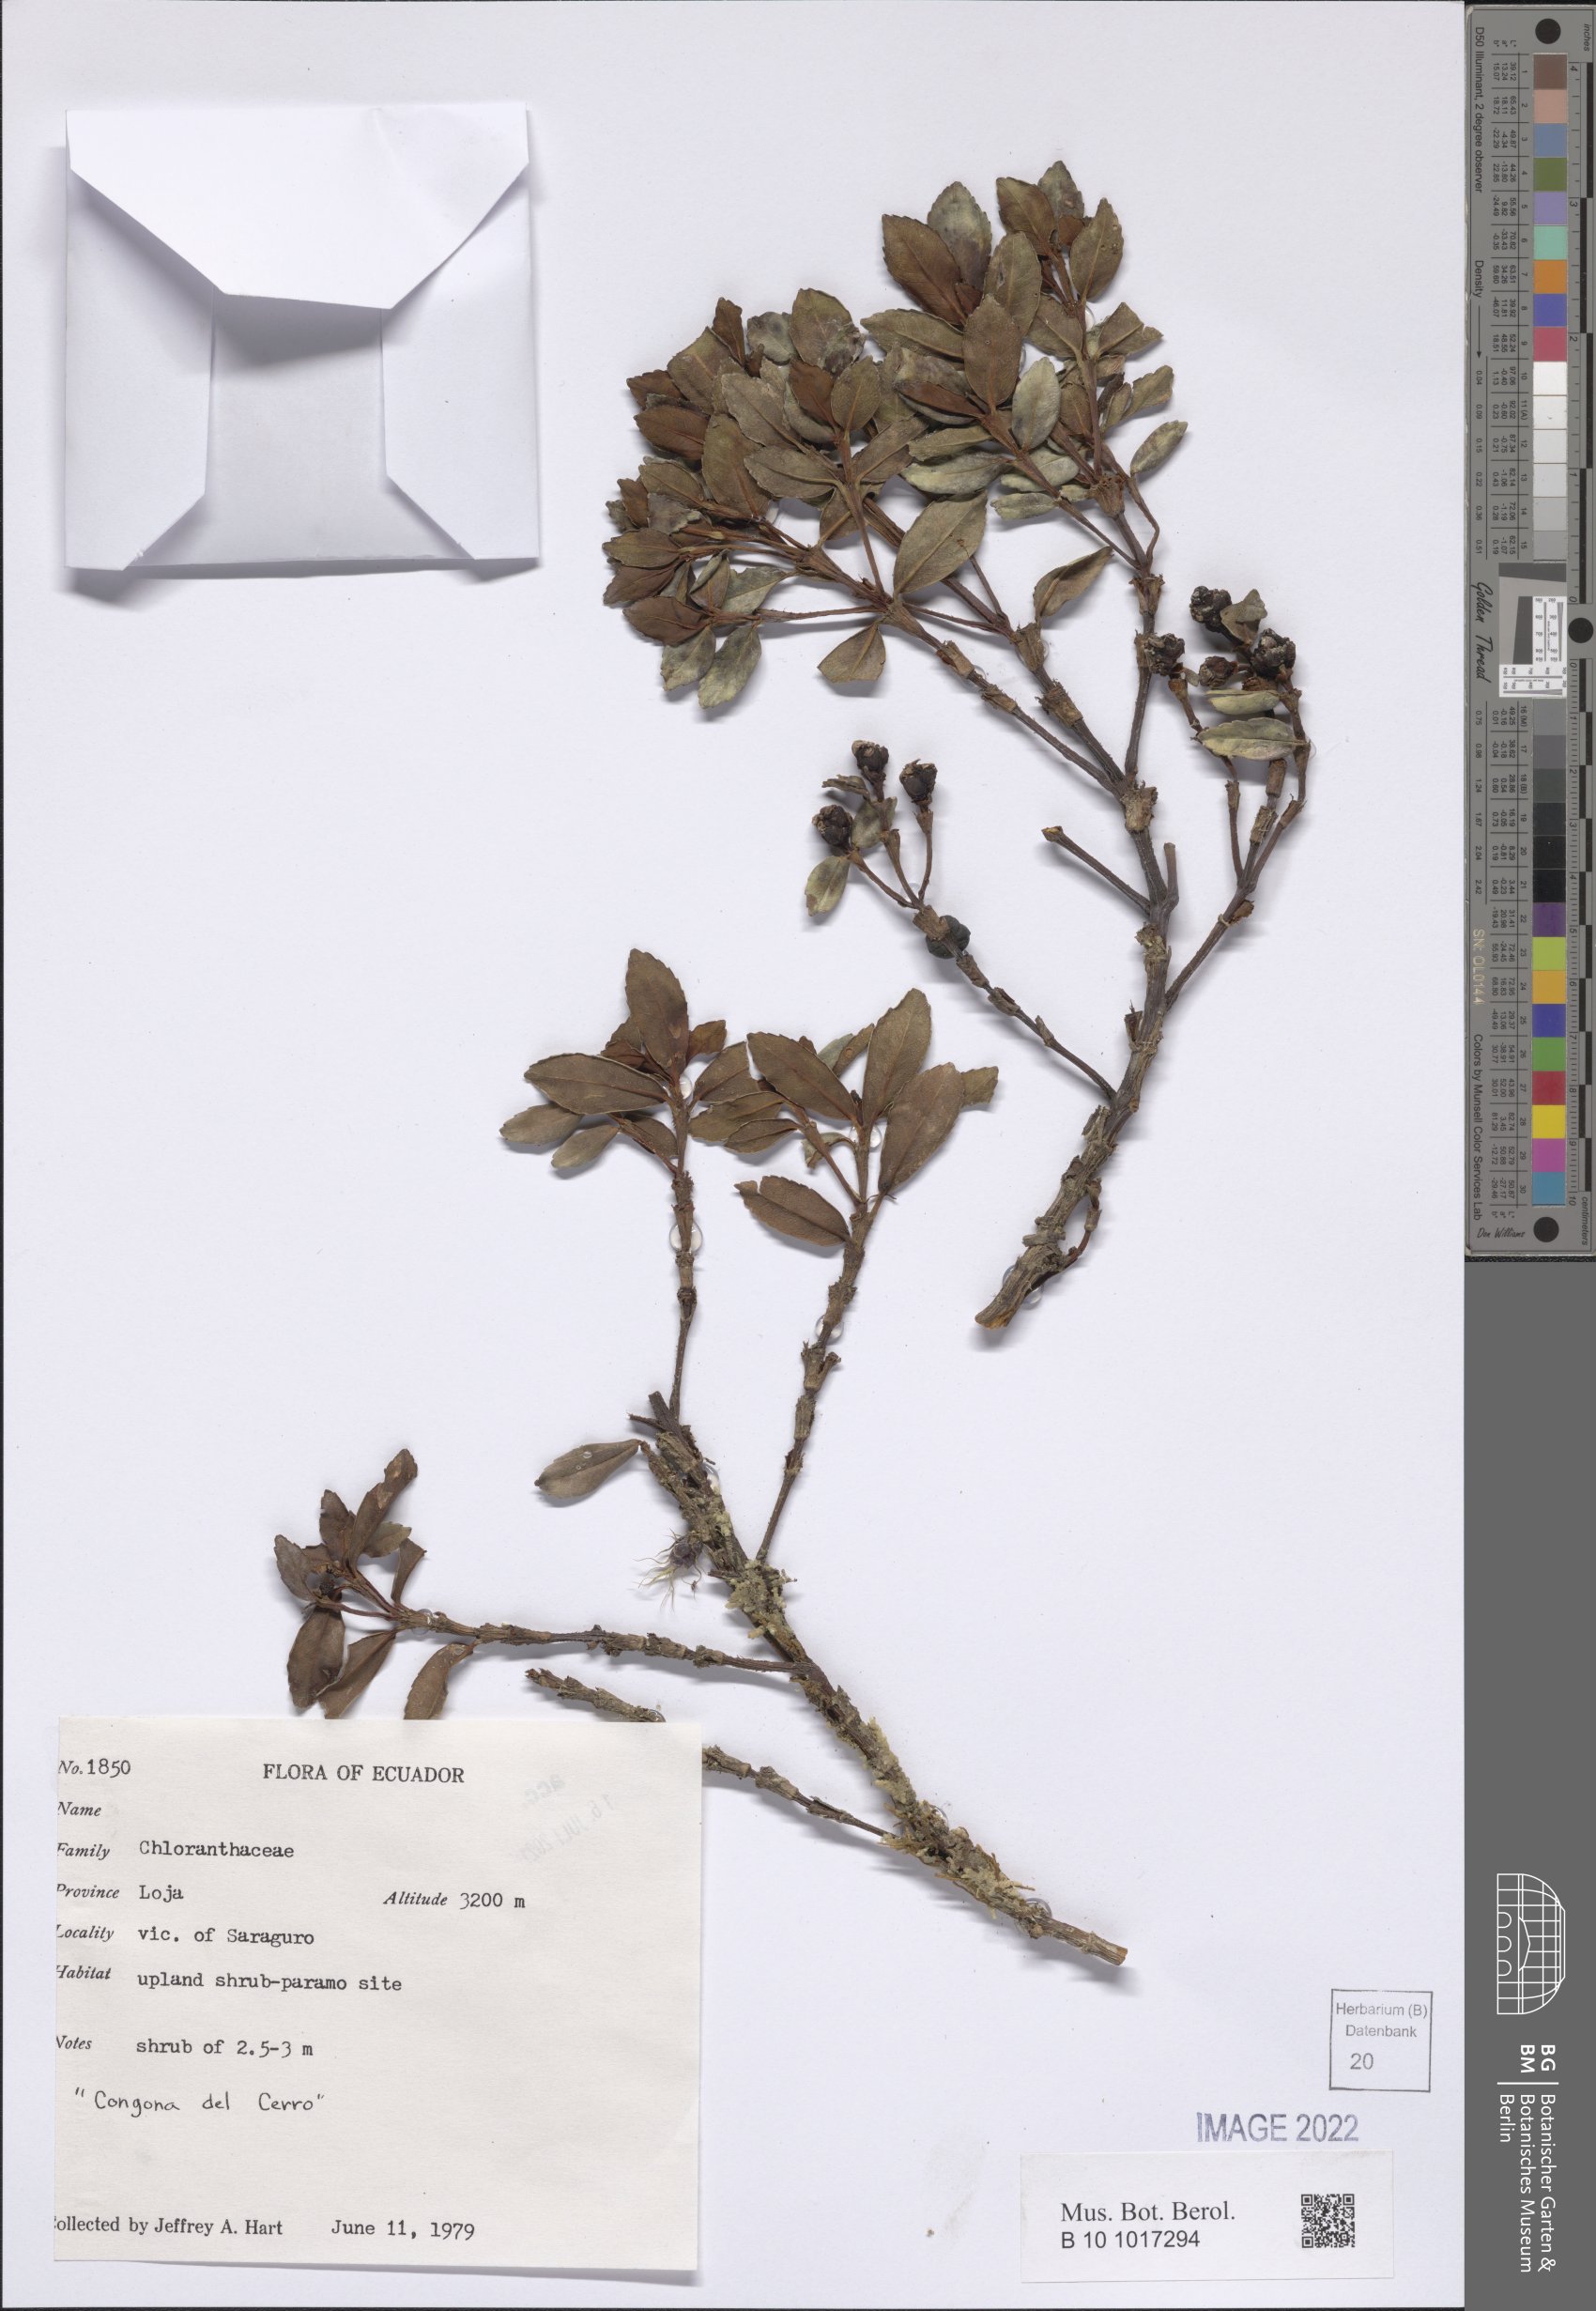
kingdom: Plantae
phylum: Tracheophyta
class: Magnoliopsida
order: Chloranthales
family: Chloranthaceae
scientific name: Chloranthaceae
